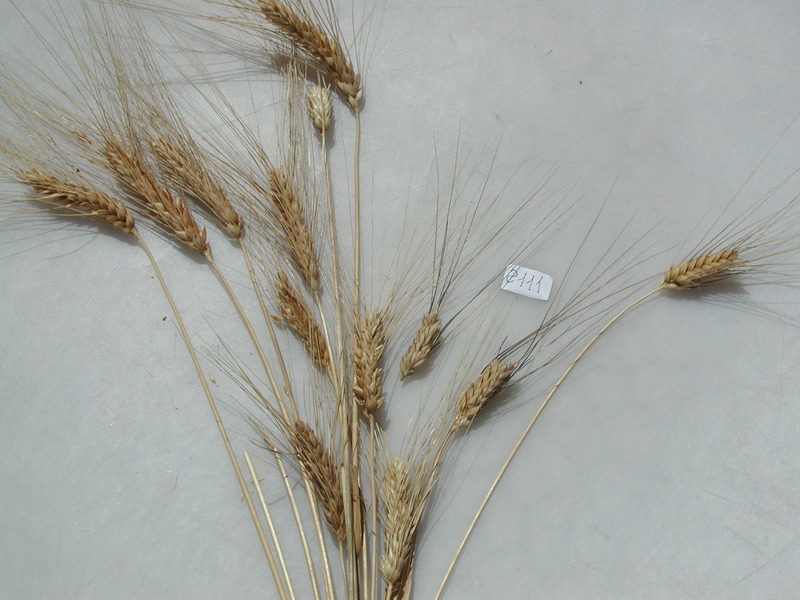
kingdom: Plantae
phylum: Tracheophyta
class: Liliopsida
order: Poales
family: Poaceae
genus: Triticum
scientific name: Triticum turgidum
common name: Wheat
